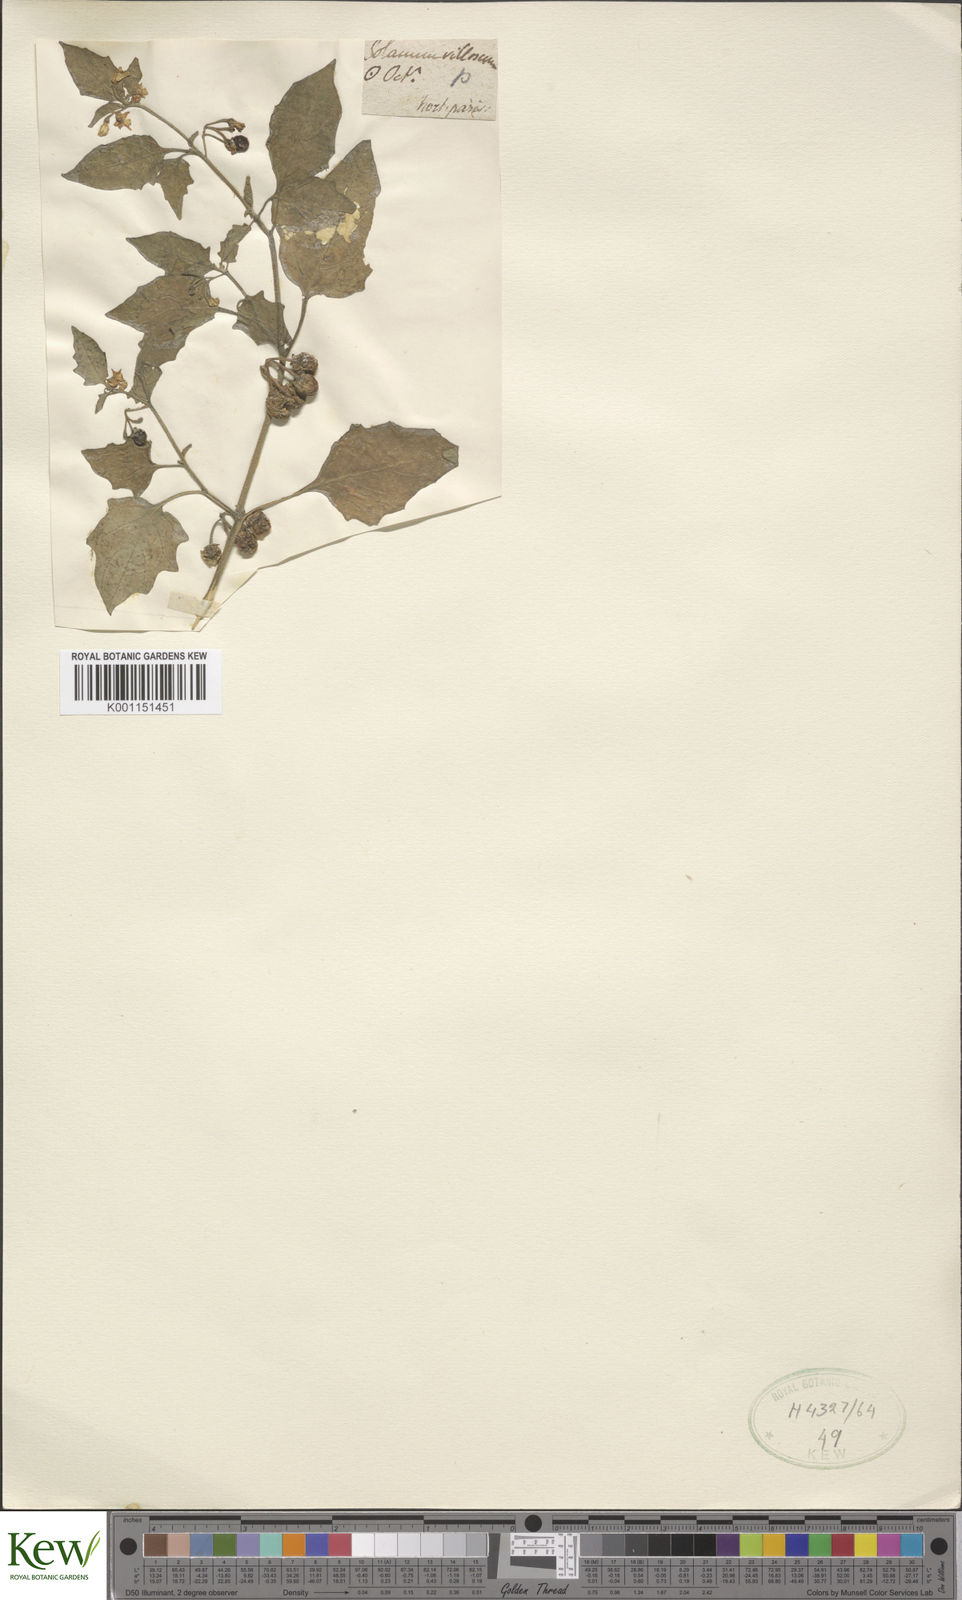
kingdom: Plantae
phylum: Tracheophyta
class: Magnoliopsida
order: Solanales
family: Solanaceae
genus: Solanum
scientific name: Solanum villosum
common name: Red nightshade
